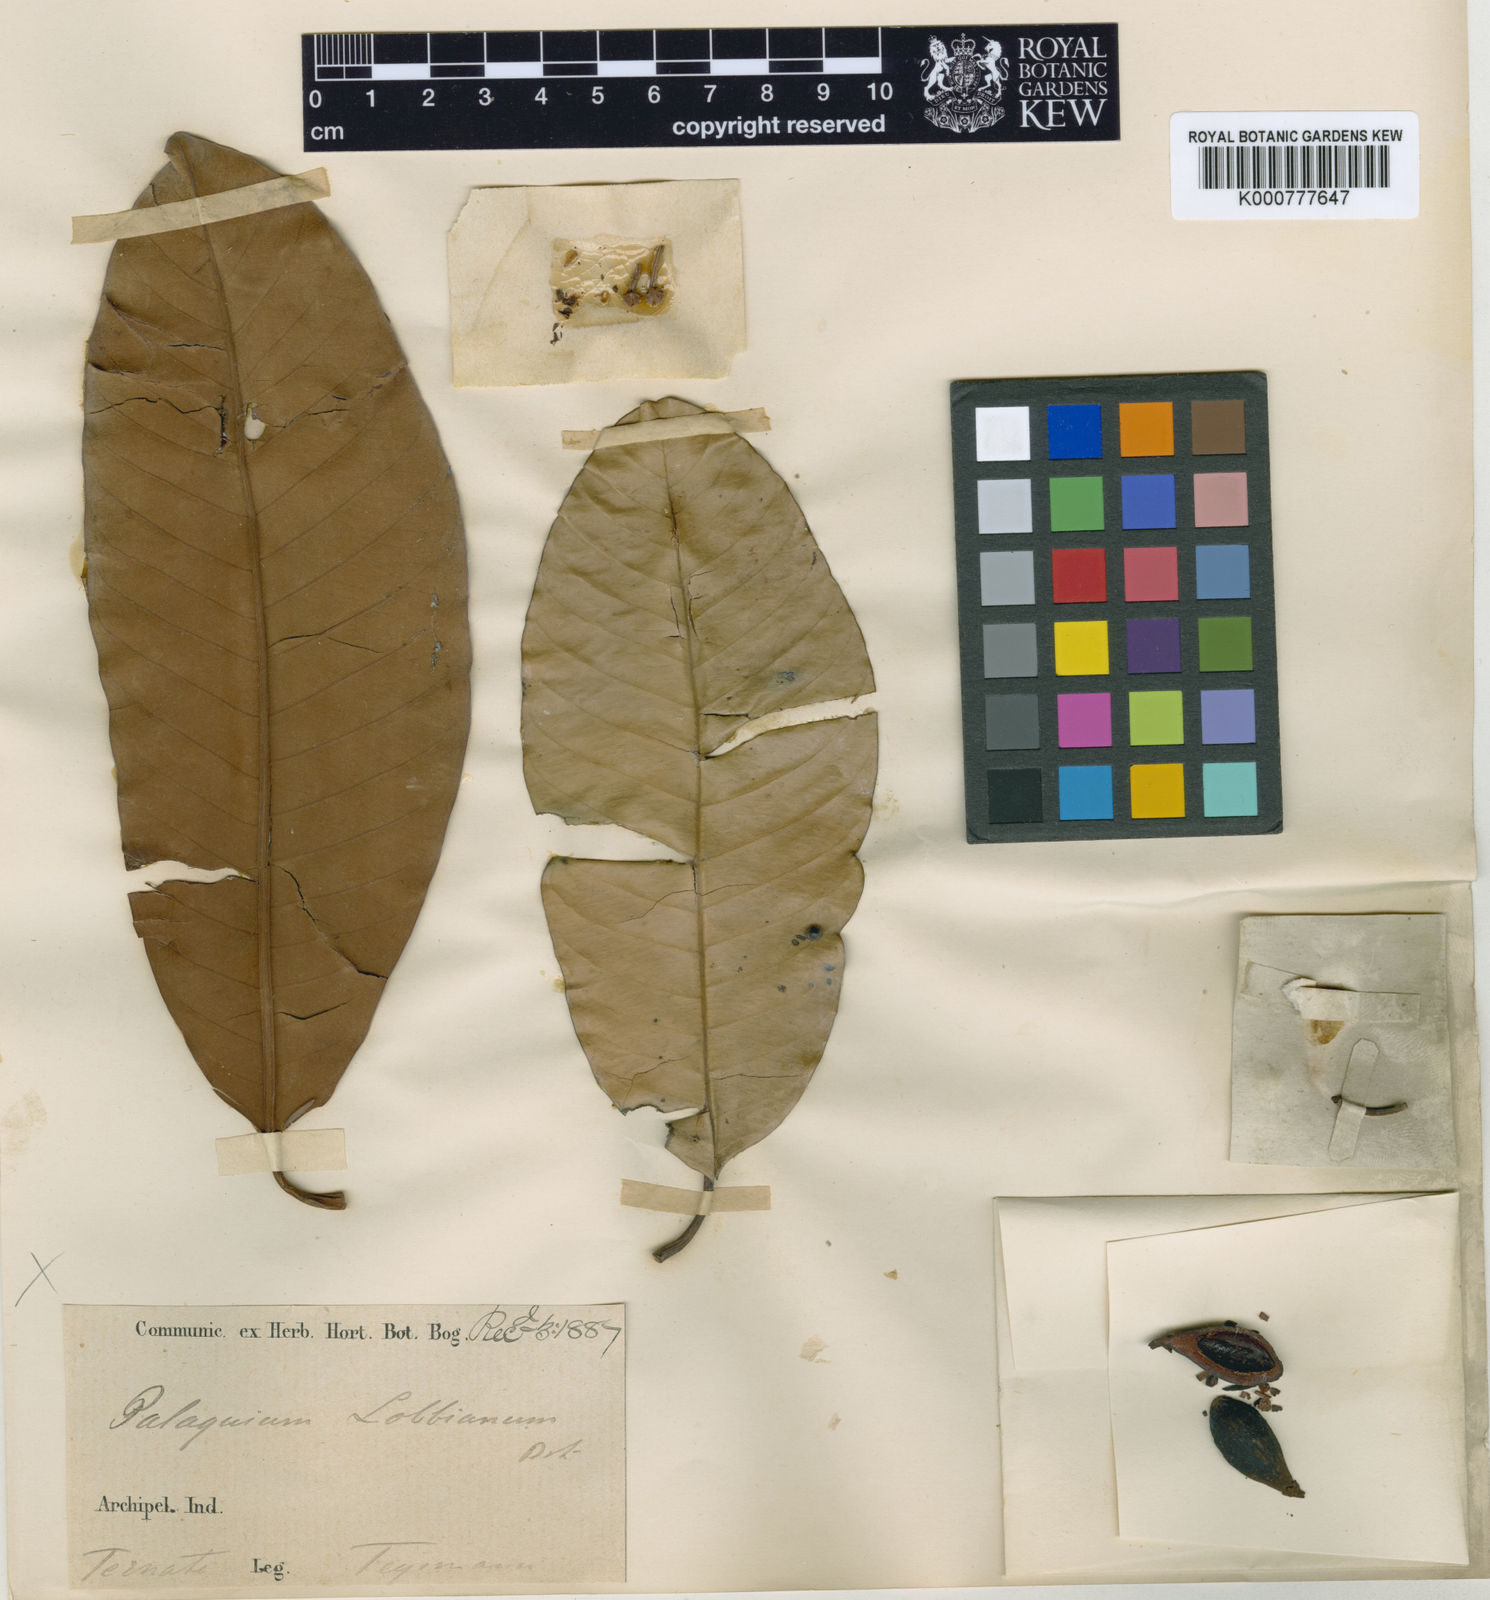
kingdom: Plantae
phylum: Tracheophyta
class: Magnoliopsida
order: Ericales
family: Sapotaceae
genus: Palaquium
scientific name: Palaquium lobbianum
